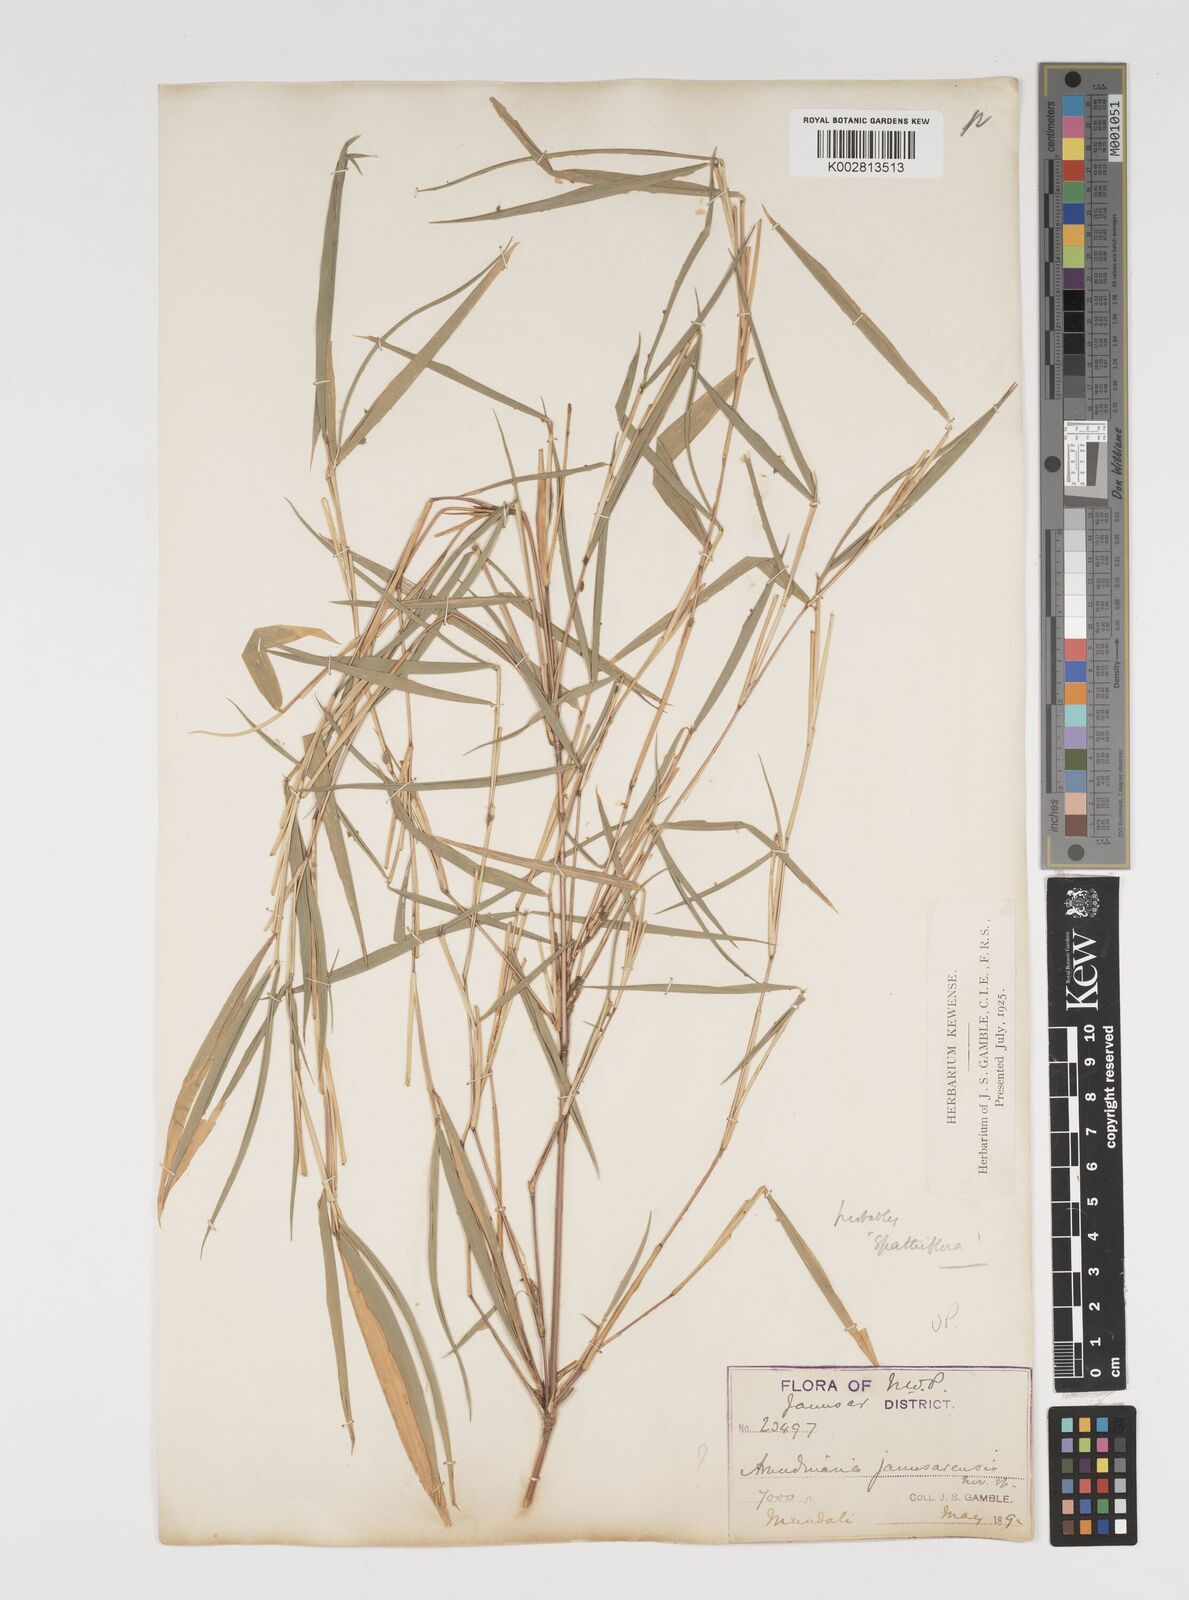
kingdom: Plantae
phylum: Tracheophyta
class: Liliopsida
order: Poales
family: Poaceae
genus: Thamnocalamus
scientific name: Thamnocalamus spathiflorus
